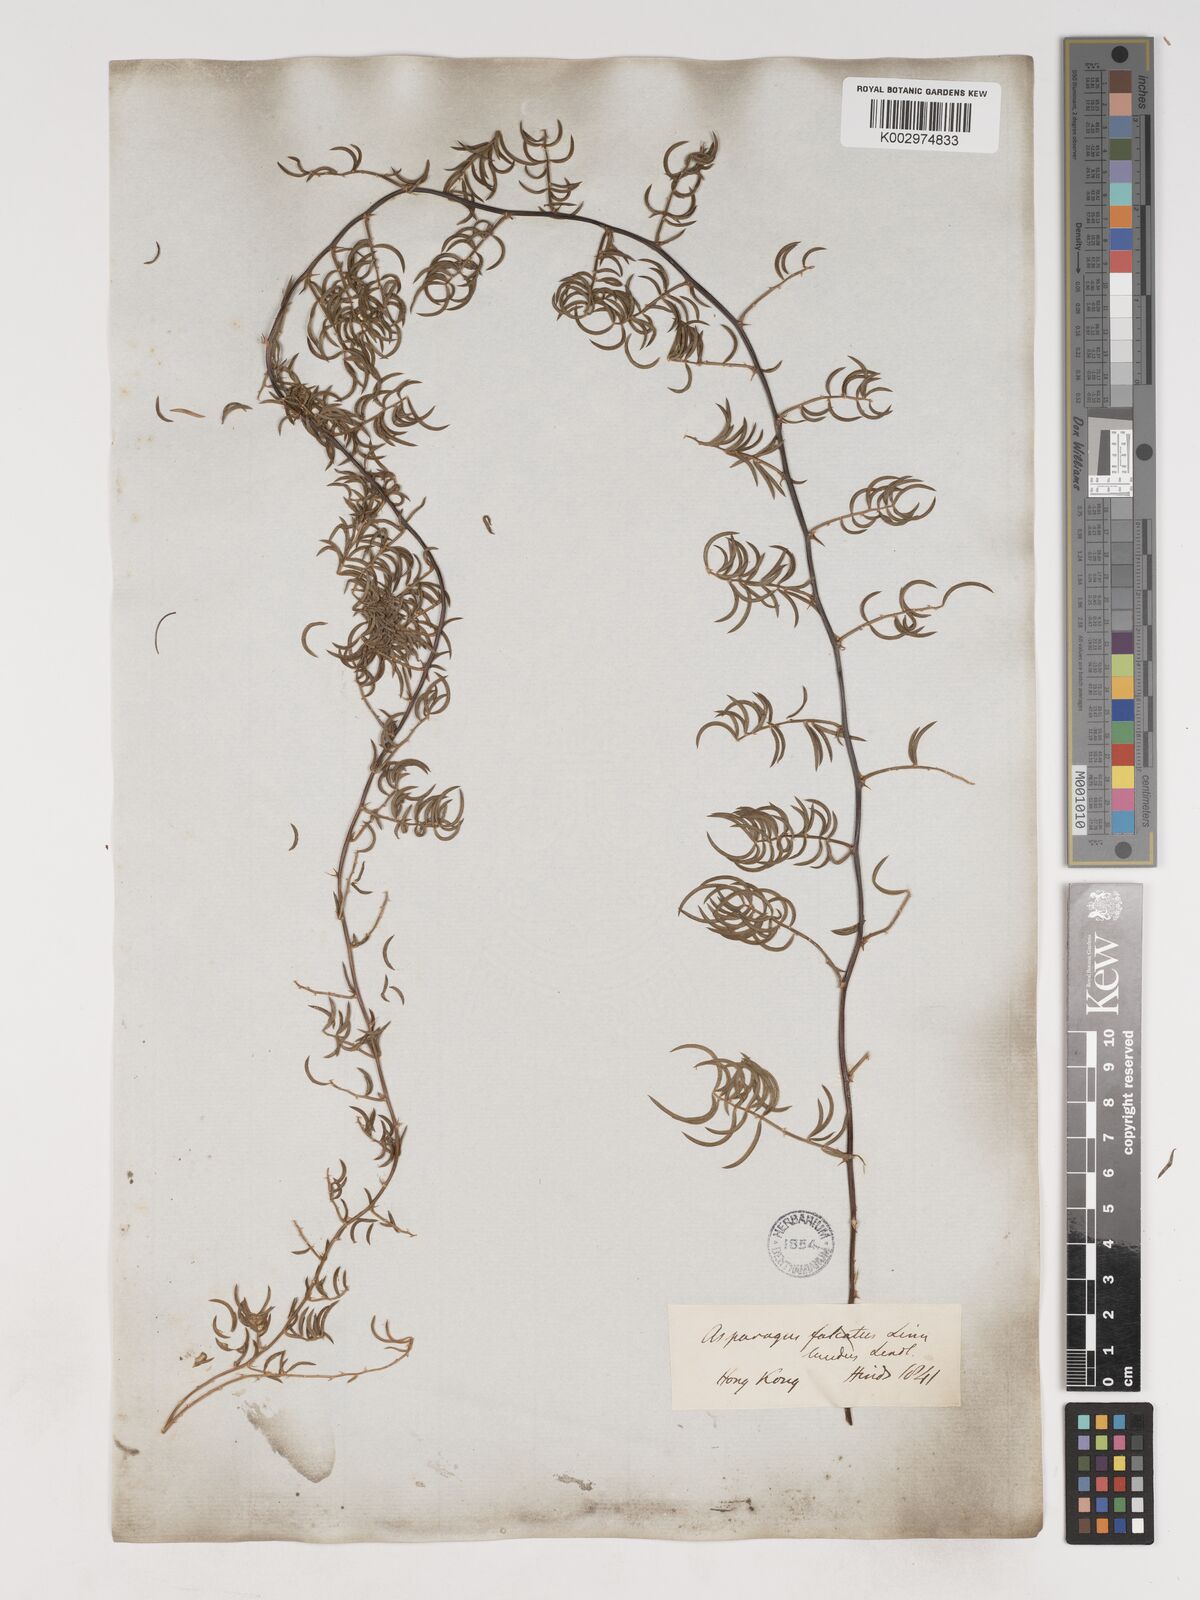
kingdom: Plantae
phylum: Tracheophyta
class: Liliopsida
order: Asparagales
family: Asparagaceae
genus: Asparagus
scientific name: Asparagus cochinchinensis
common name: Chinese asparagus
